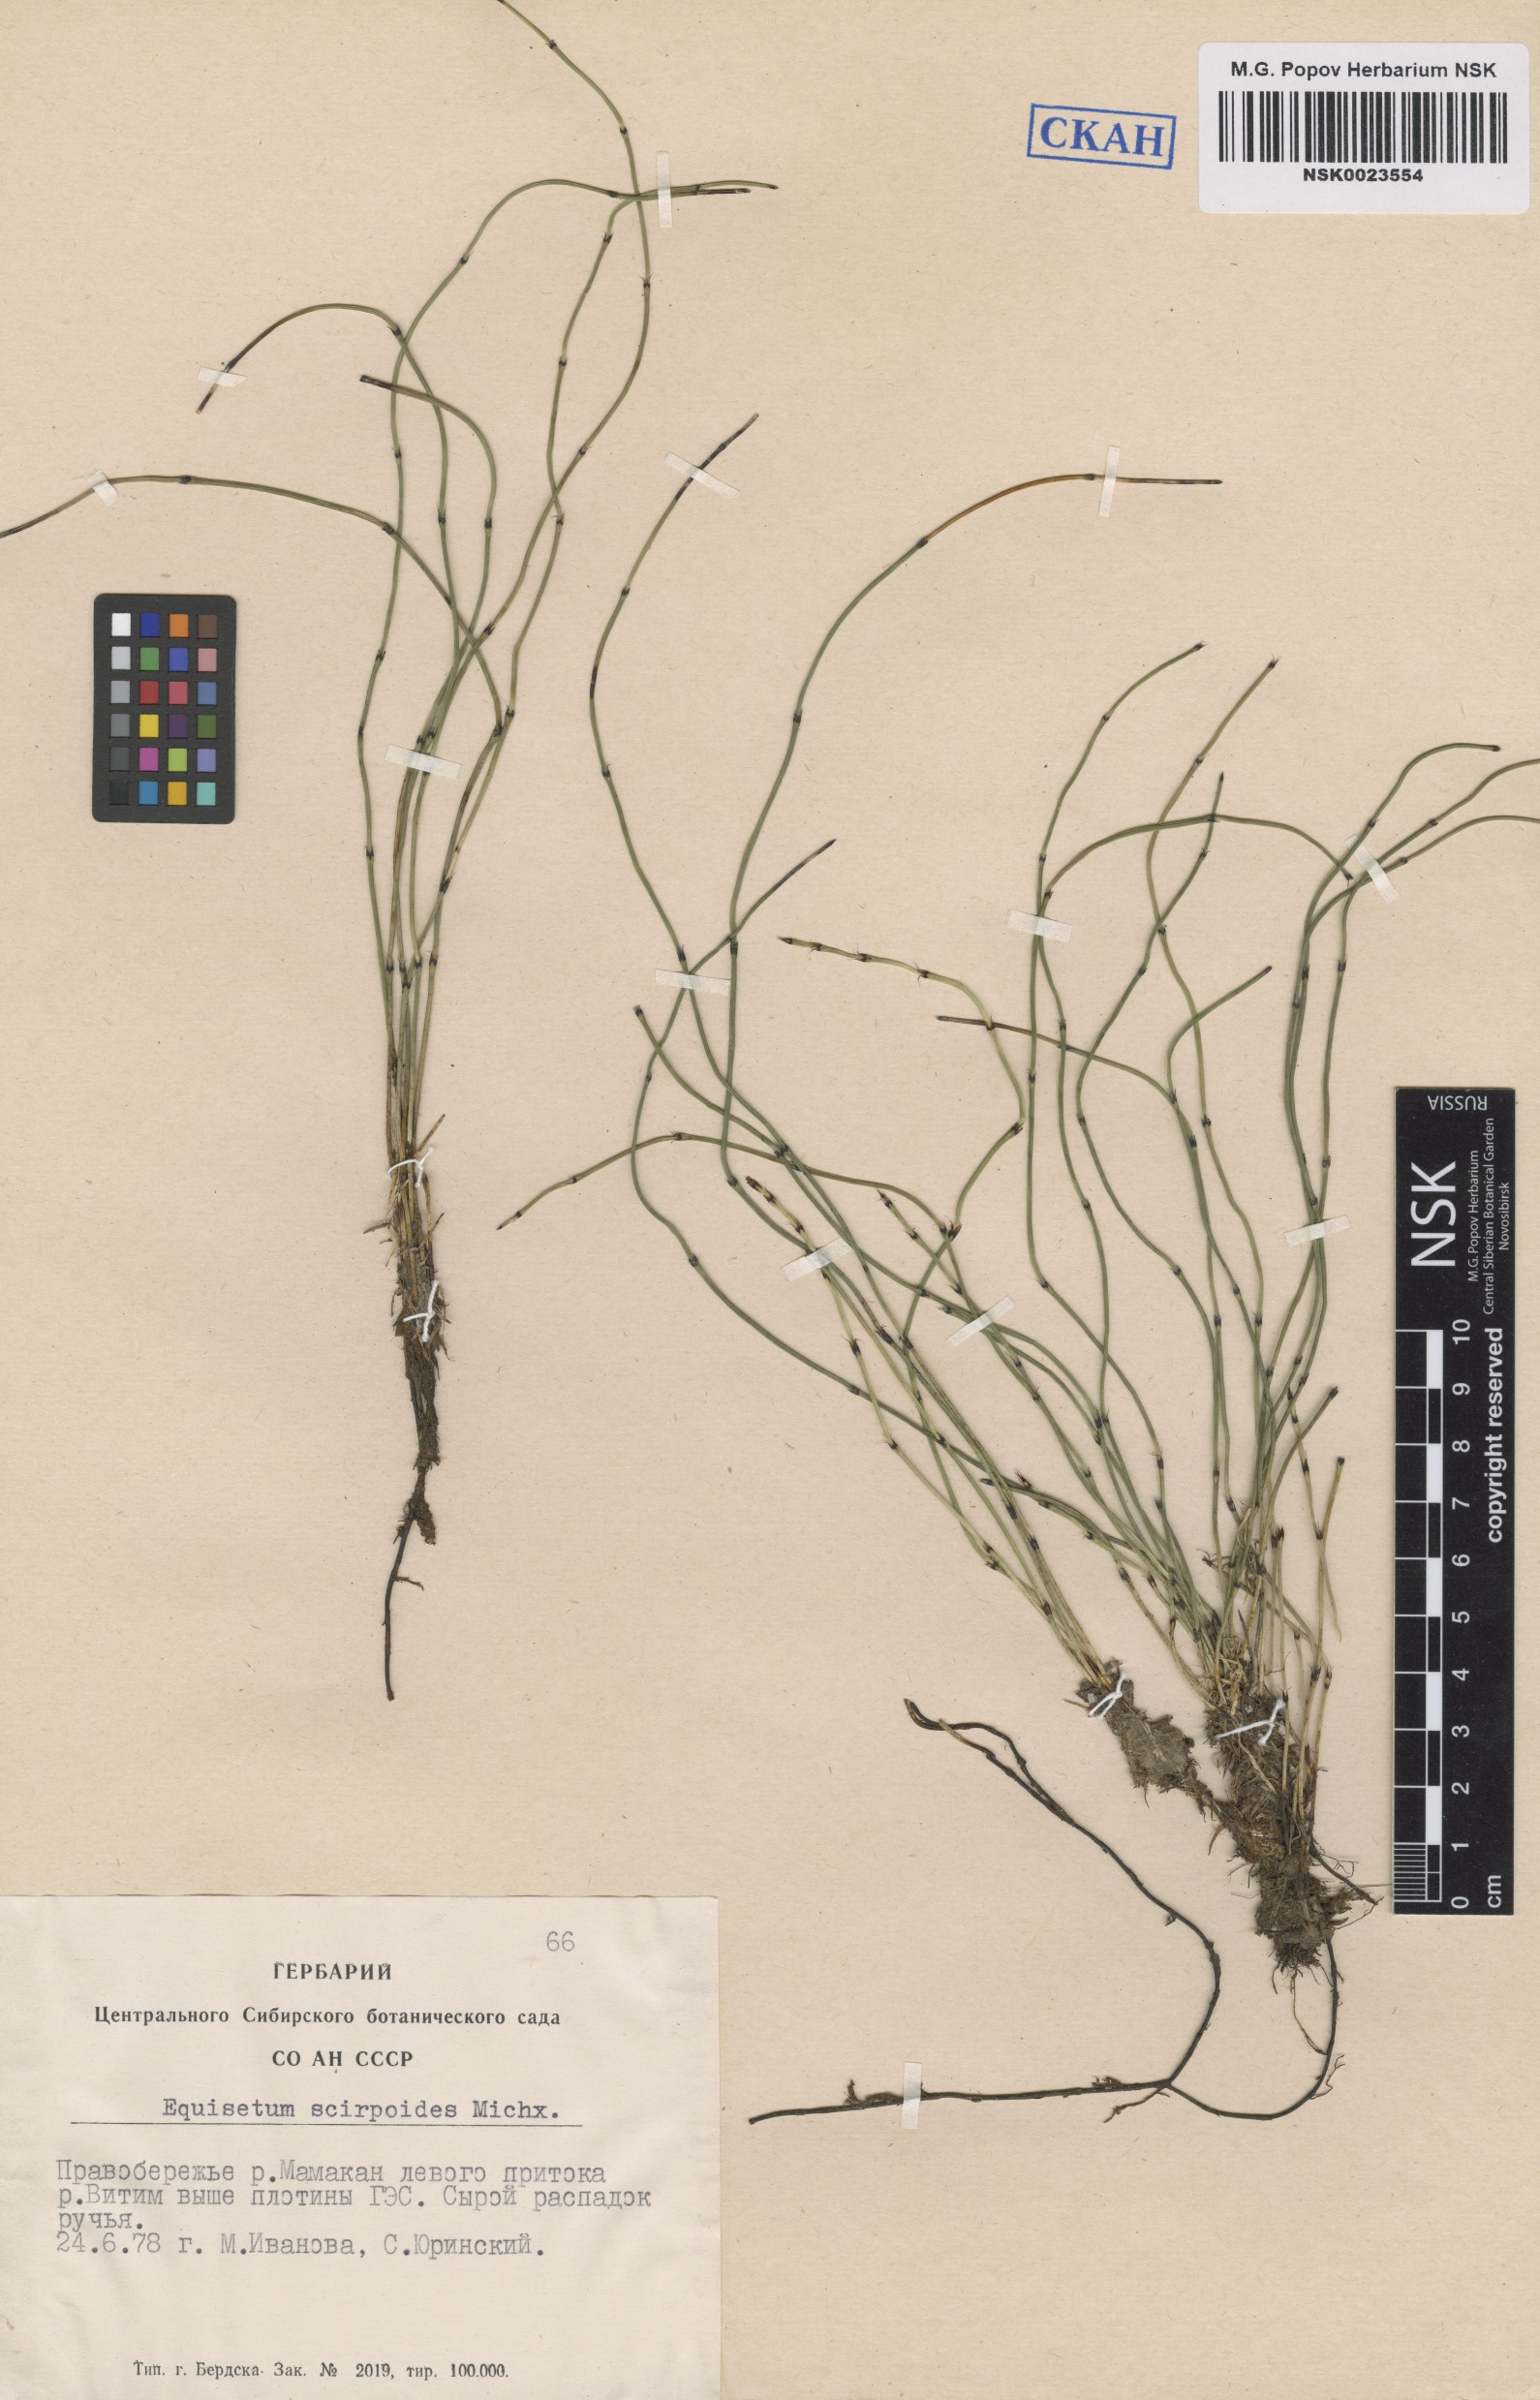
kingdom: Plantae
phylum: Tracheophyta
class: Polypodiopsida
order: Equisetales
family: Equisetaceae
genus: Equisetum
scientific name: Equisetum scirpoides
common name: Delicate horsetail
